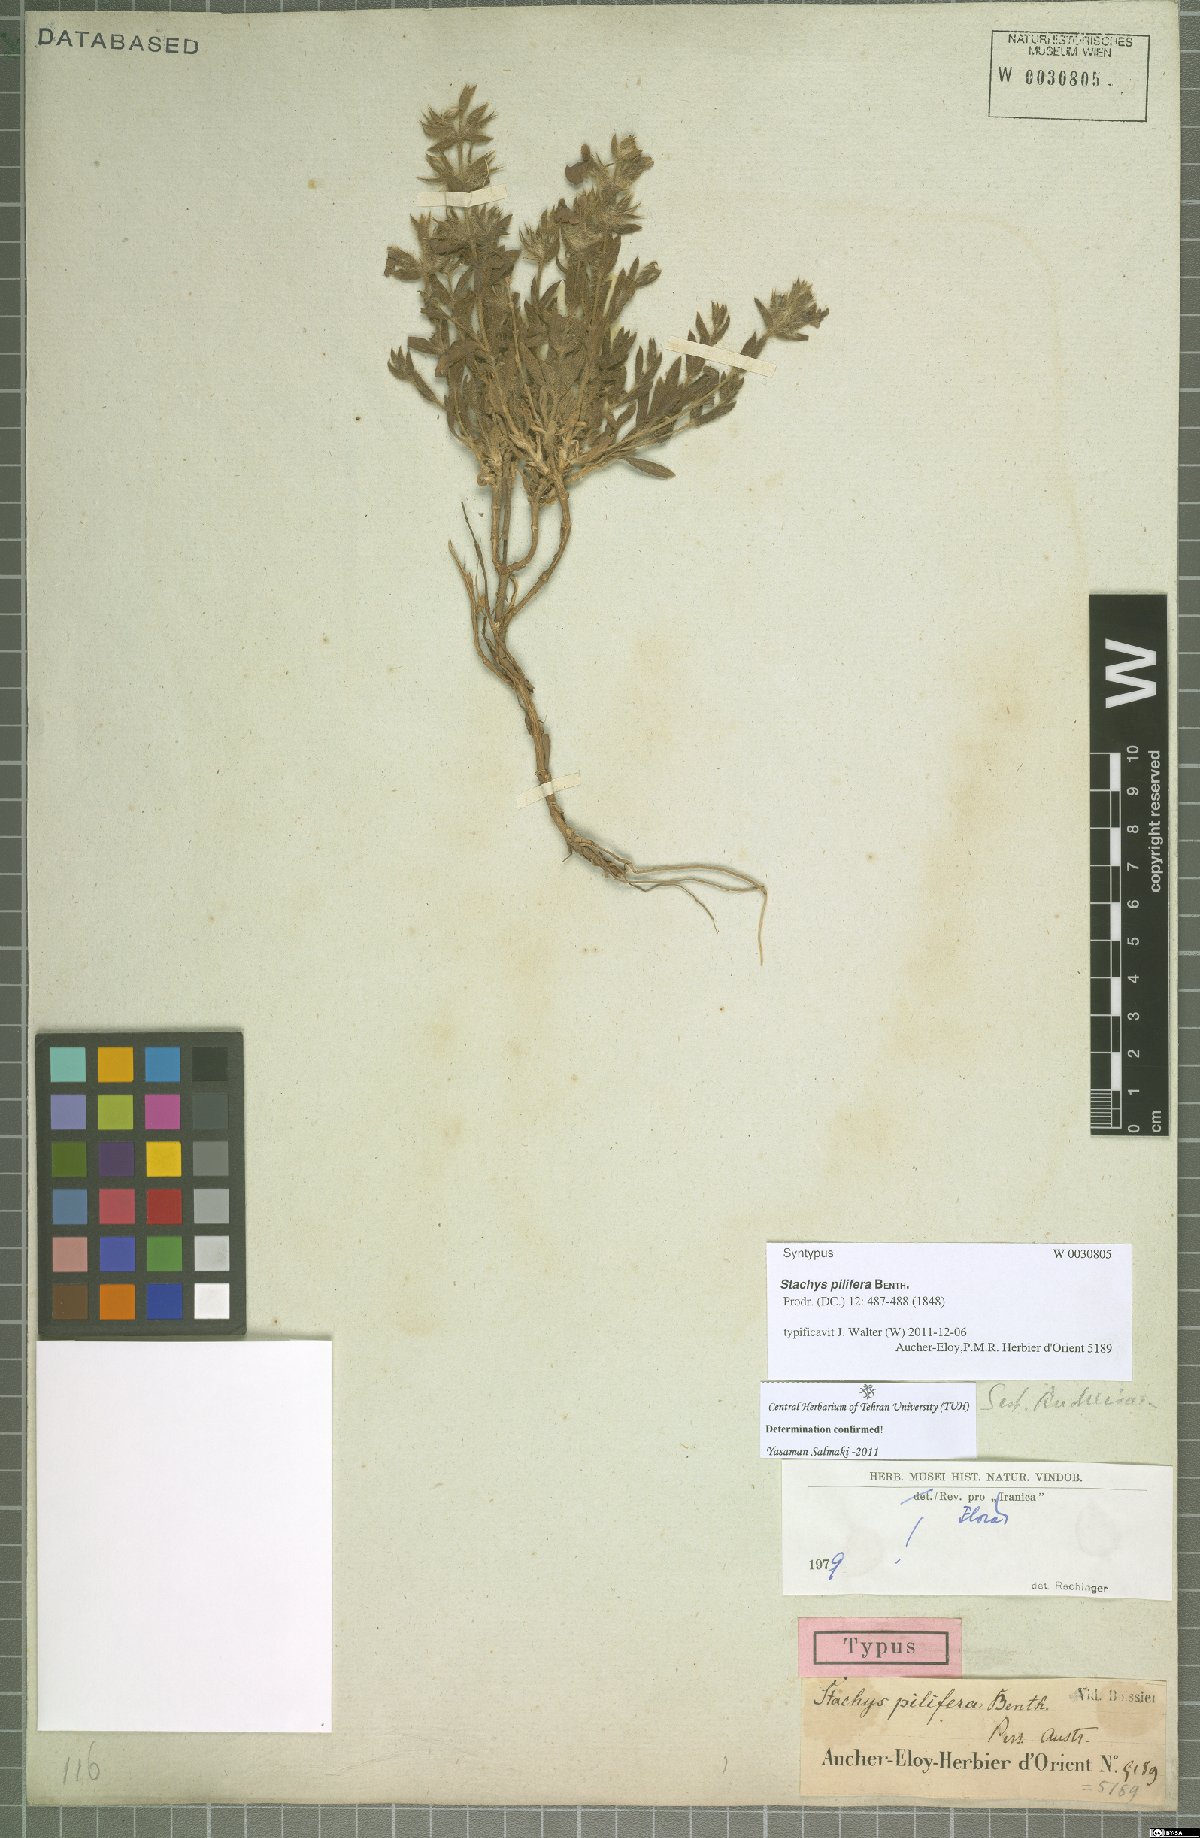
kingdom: Plantae
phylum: Tracheophyta
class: Magnoliopsida
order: Lamiales
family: Lamiaceae
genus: Stachys
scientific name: Stachys pilifera
